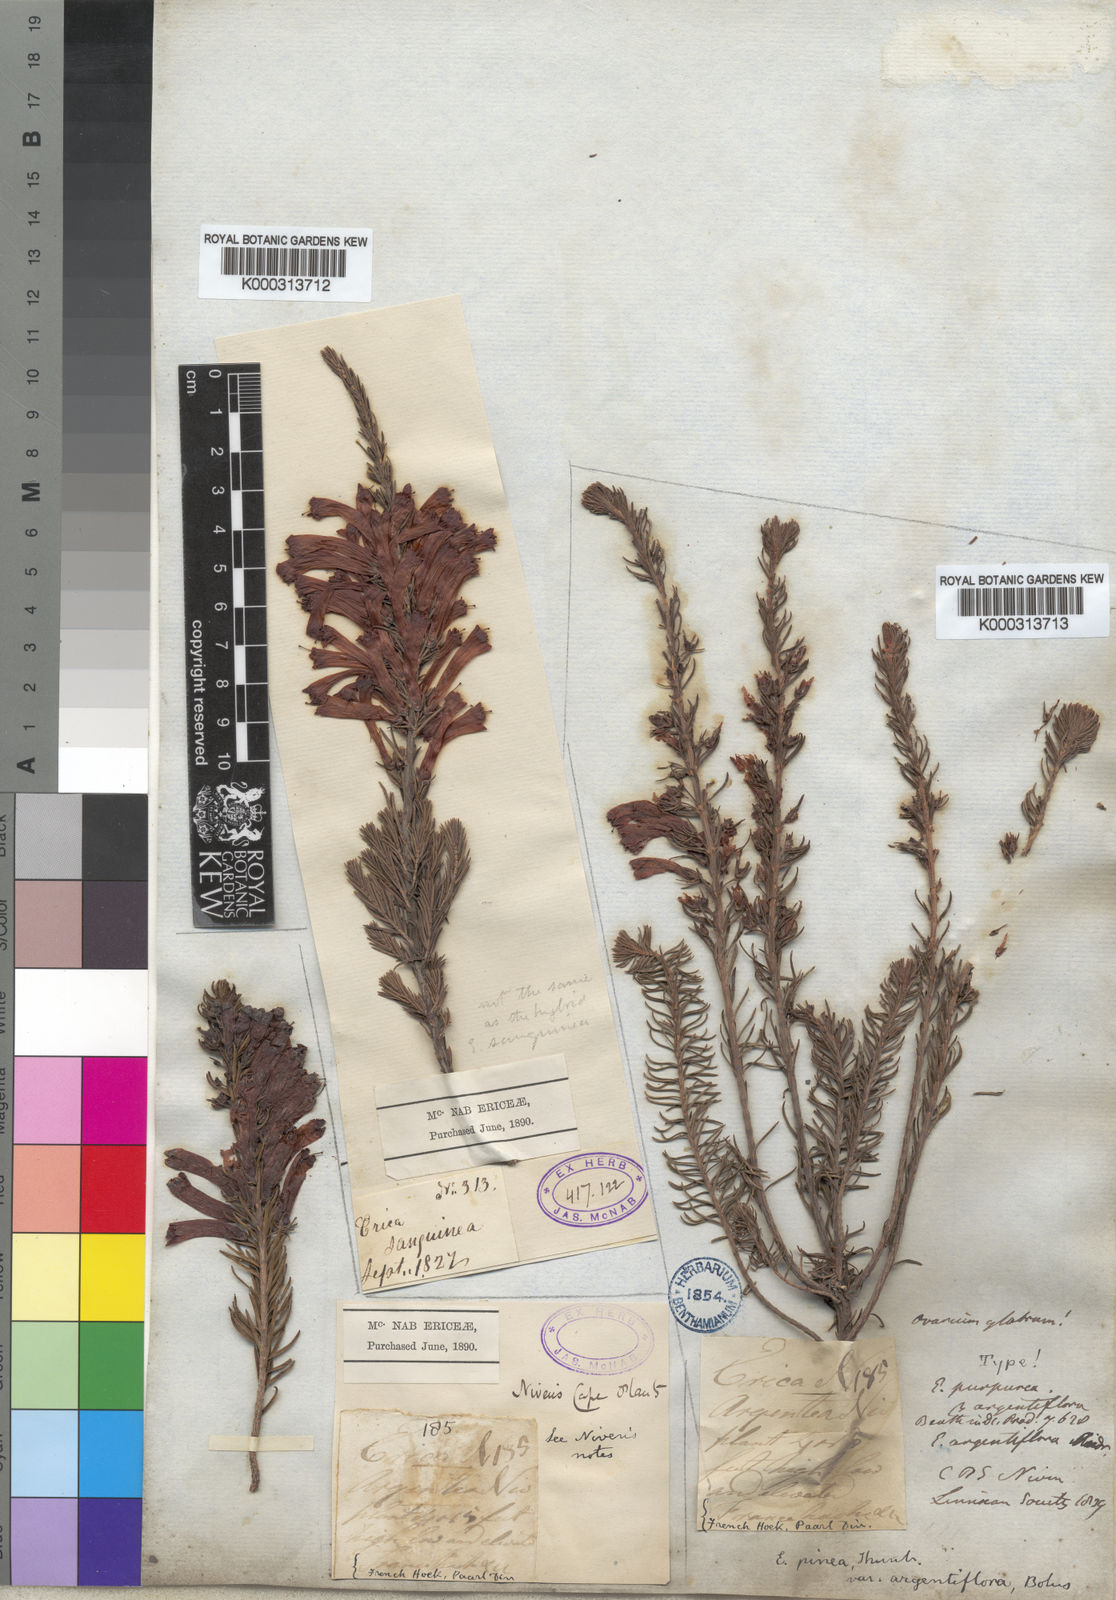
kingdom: Plantae
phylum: Tracheophyta
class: Magnoliopsida
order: Ericales
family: Ericaceae
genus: Erica
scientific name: Erica pinea
